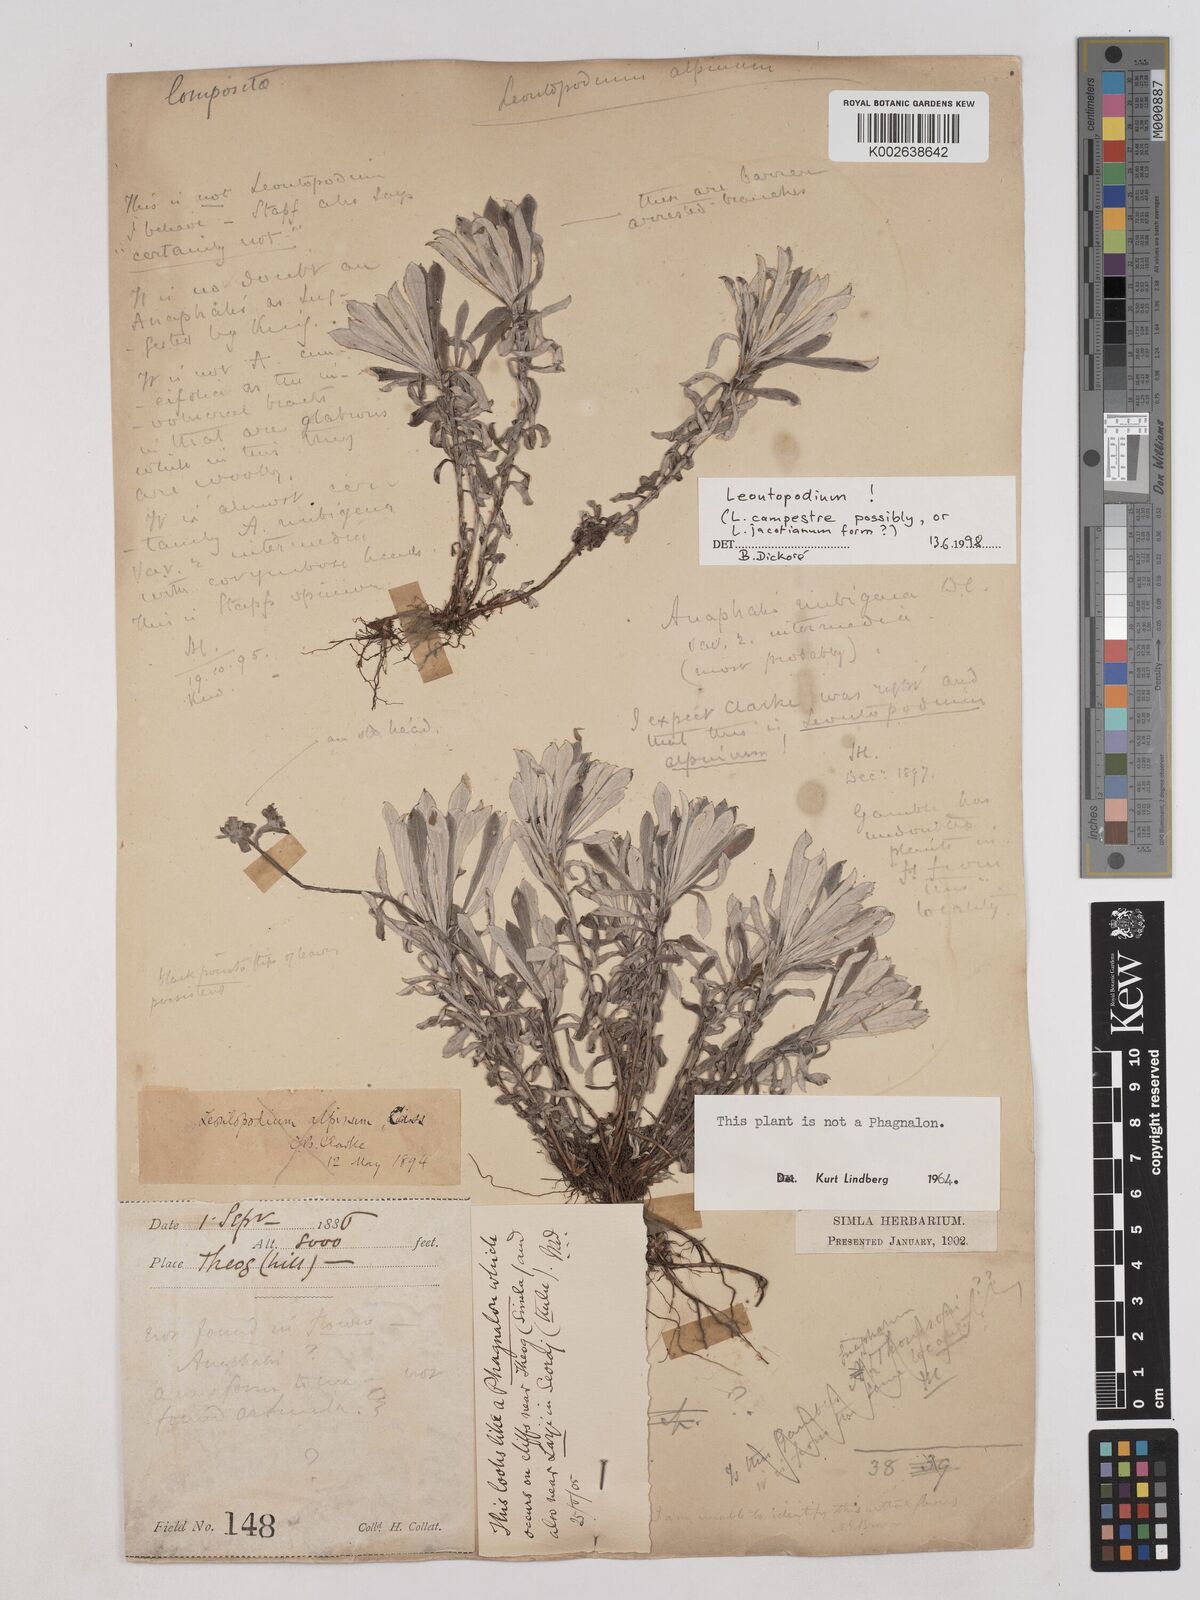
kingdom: Plantae
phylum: Tracheophyta
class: Magnoliopsida
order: Asterales
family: Asteraceae
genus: Anaphalis
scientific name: Anaphalis nepalensis
